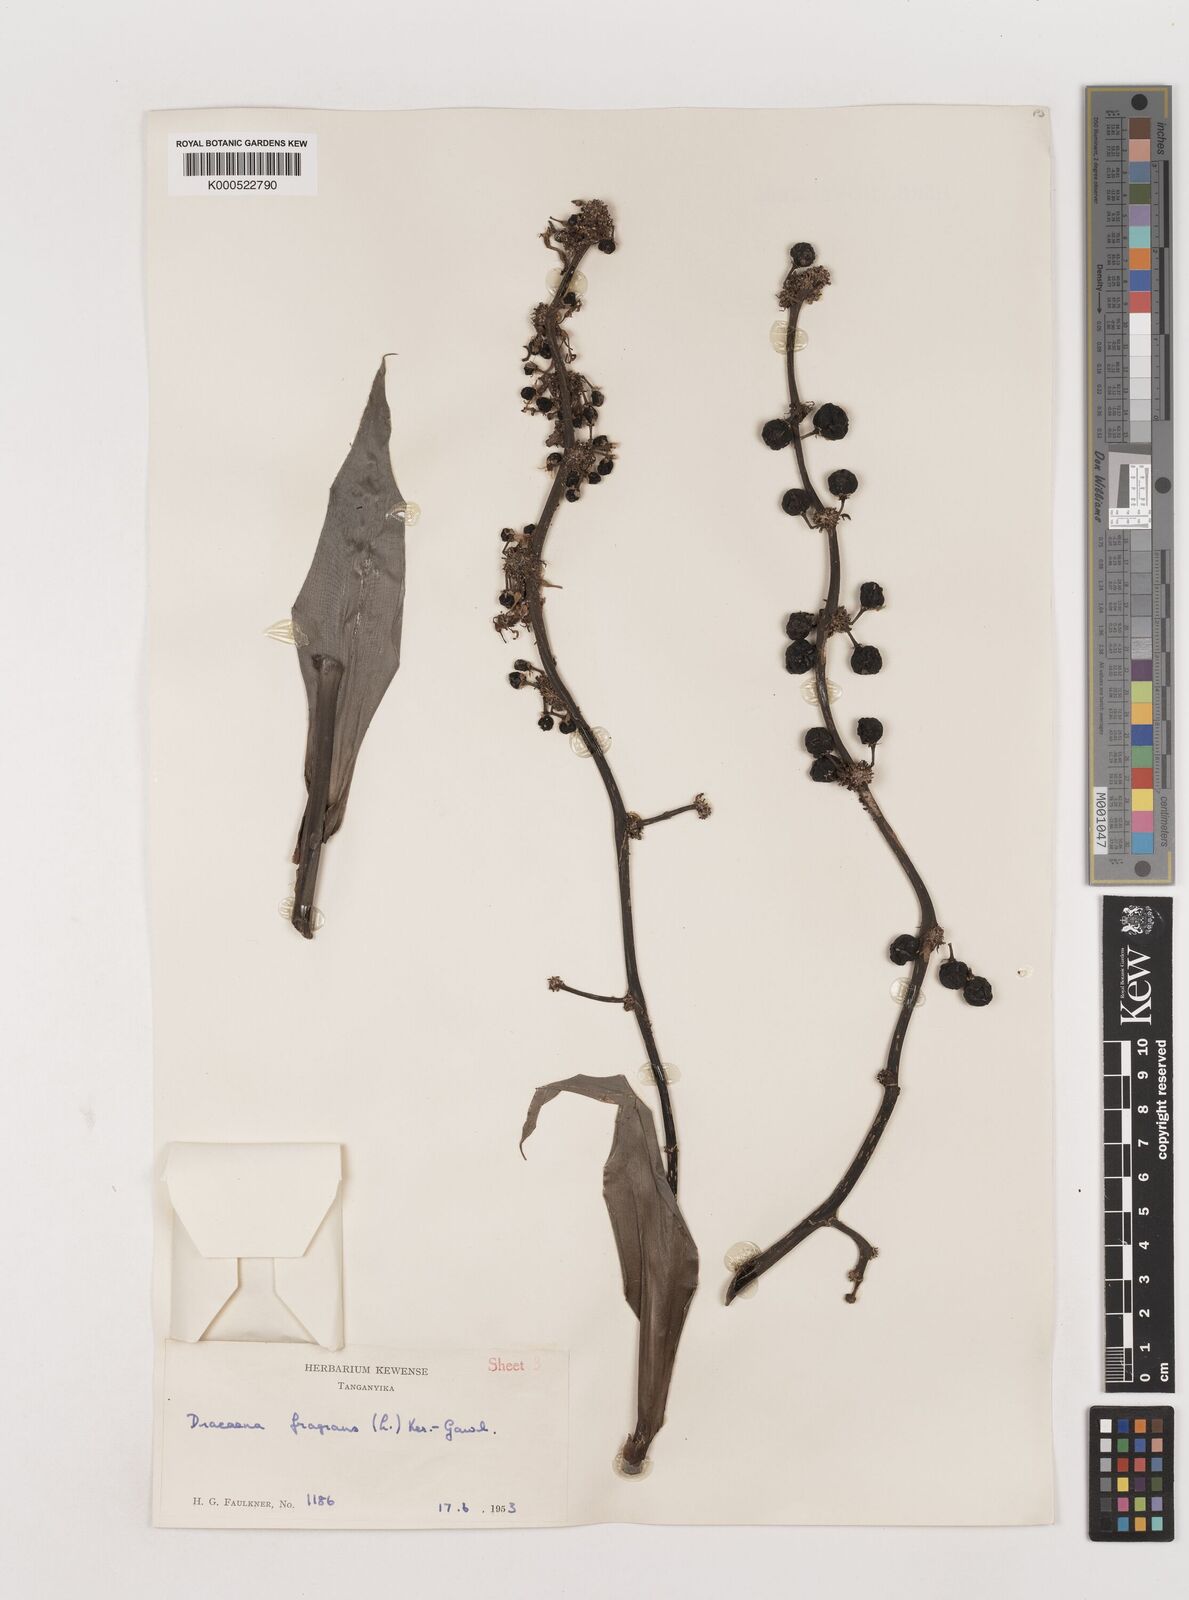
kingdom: Plantae
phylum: Tracheophyta
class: Liliopsida
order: Asparagales
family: Asparagaceae
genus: Dracaena
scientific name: Dracaena fragrans
